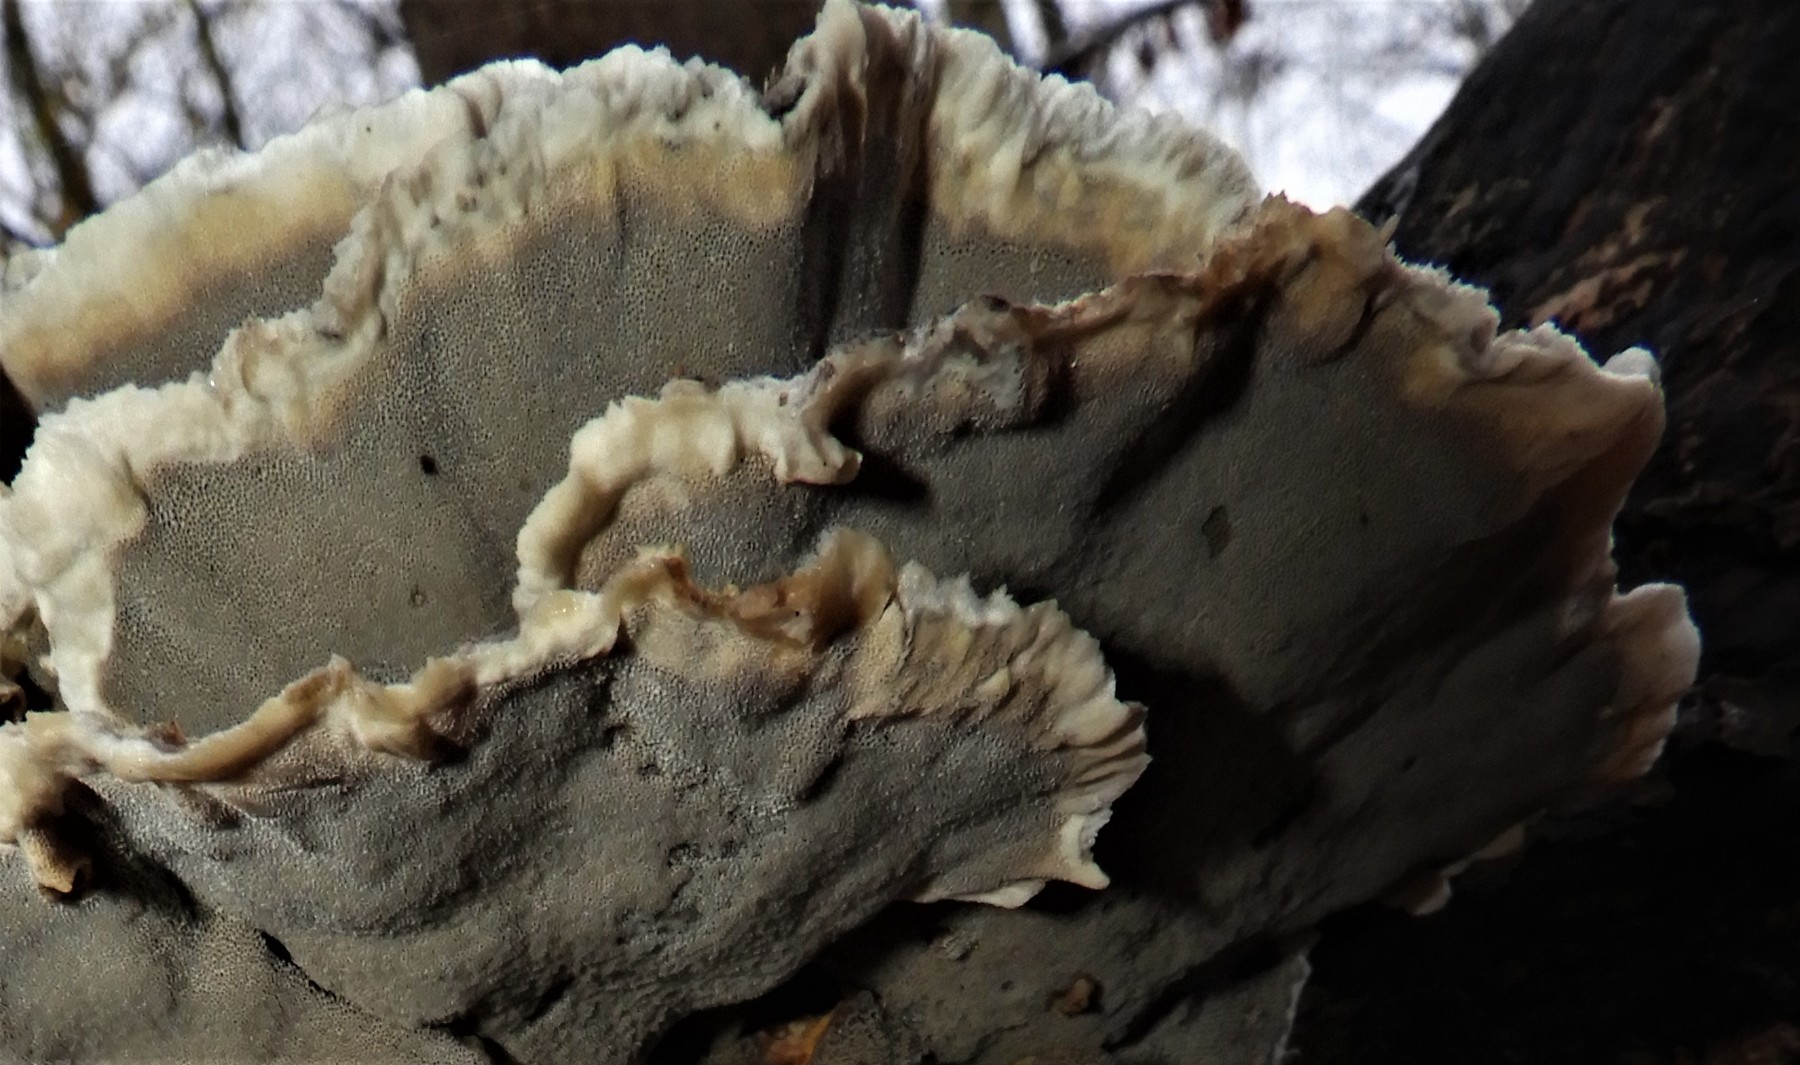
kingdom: Fungi
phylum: Basidiomycota
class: Agaricomycetes
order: Polyporales
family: Phanerochaetaceae
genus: Bjerkandera
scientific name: Bjerkandera adusta
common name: sveden sodporesvamp
